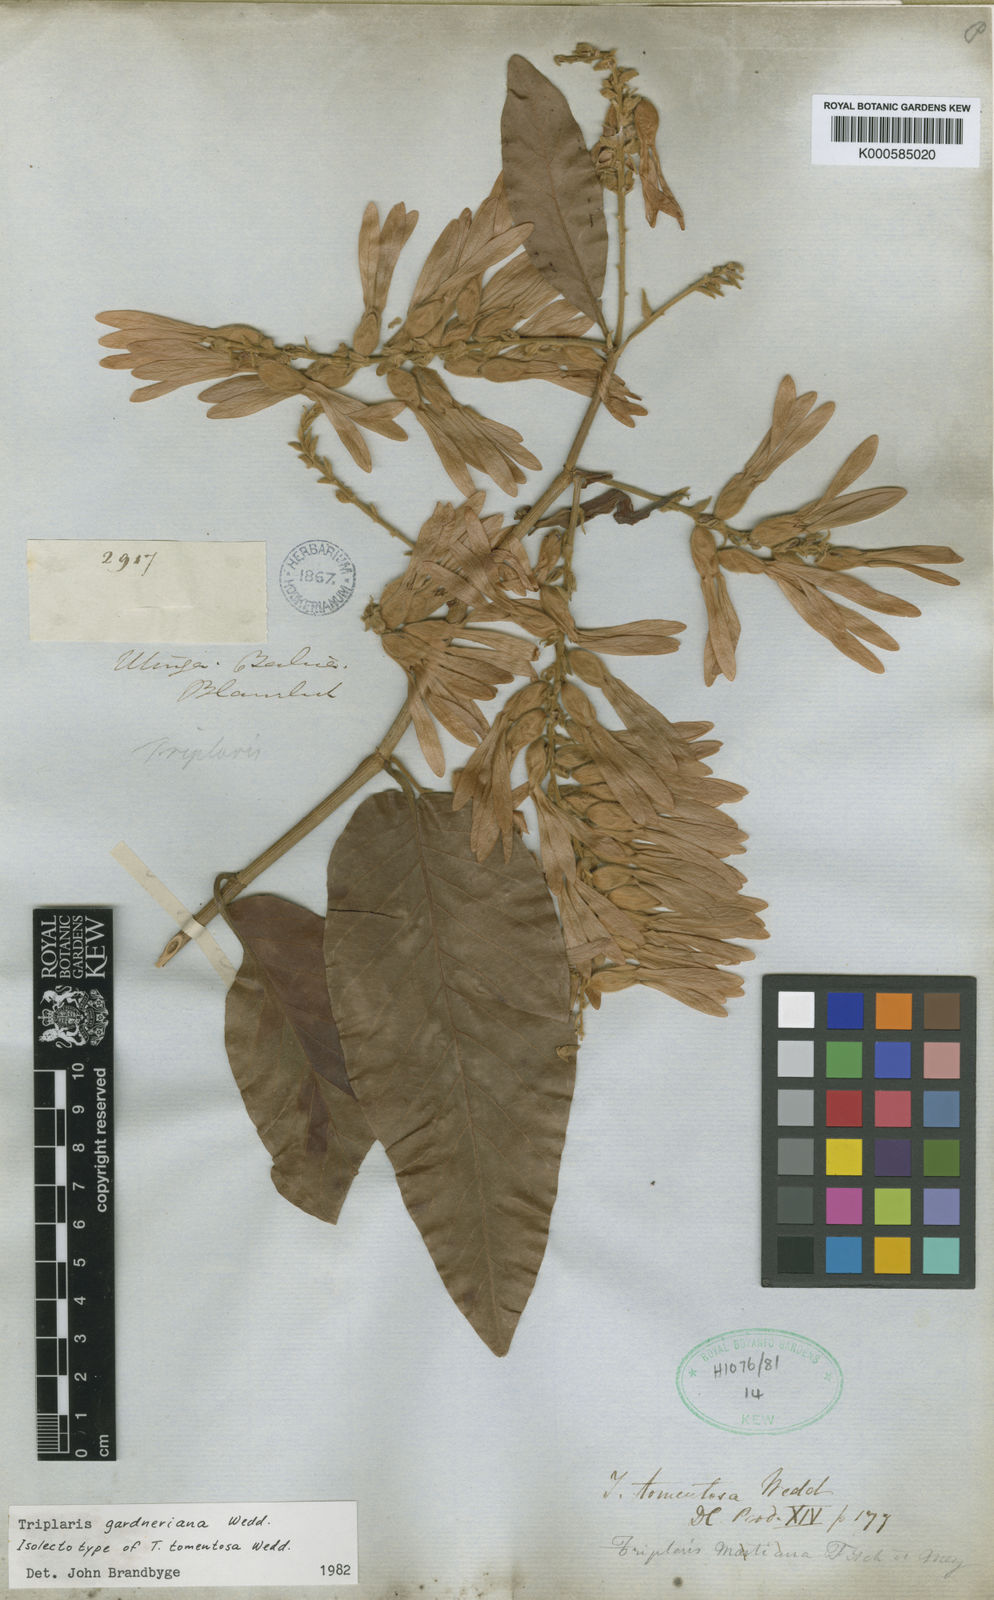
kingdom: Plantae
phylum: Tracheophyta
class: Magnoliopsida
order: Caryophyllales
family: Polygonaceae
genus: Triplaris
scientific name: Triplaris gardneriana
